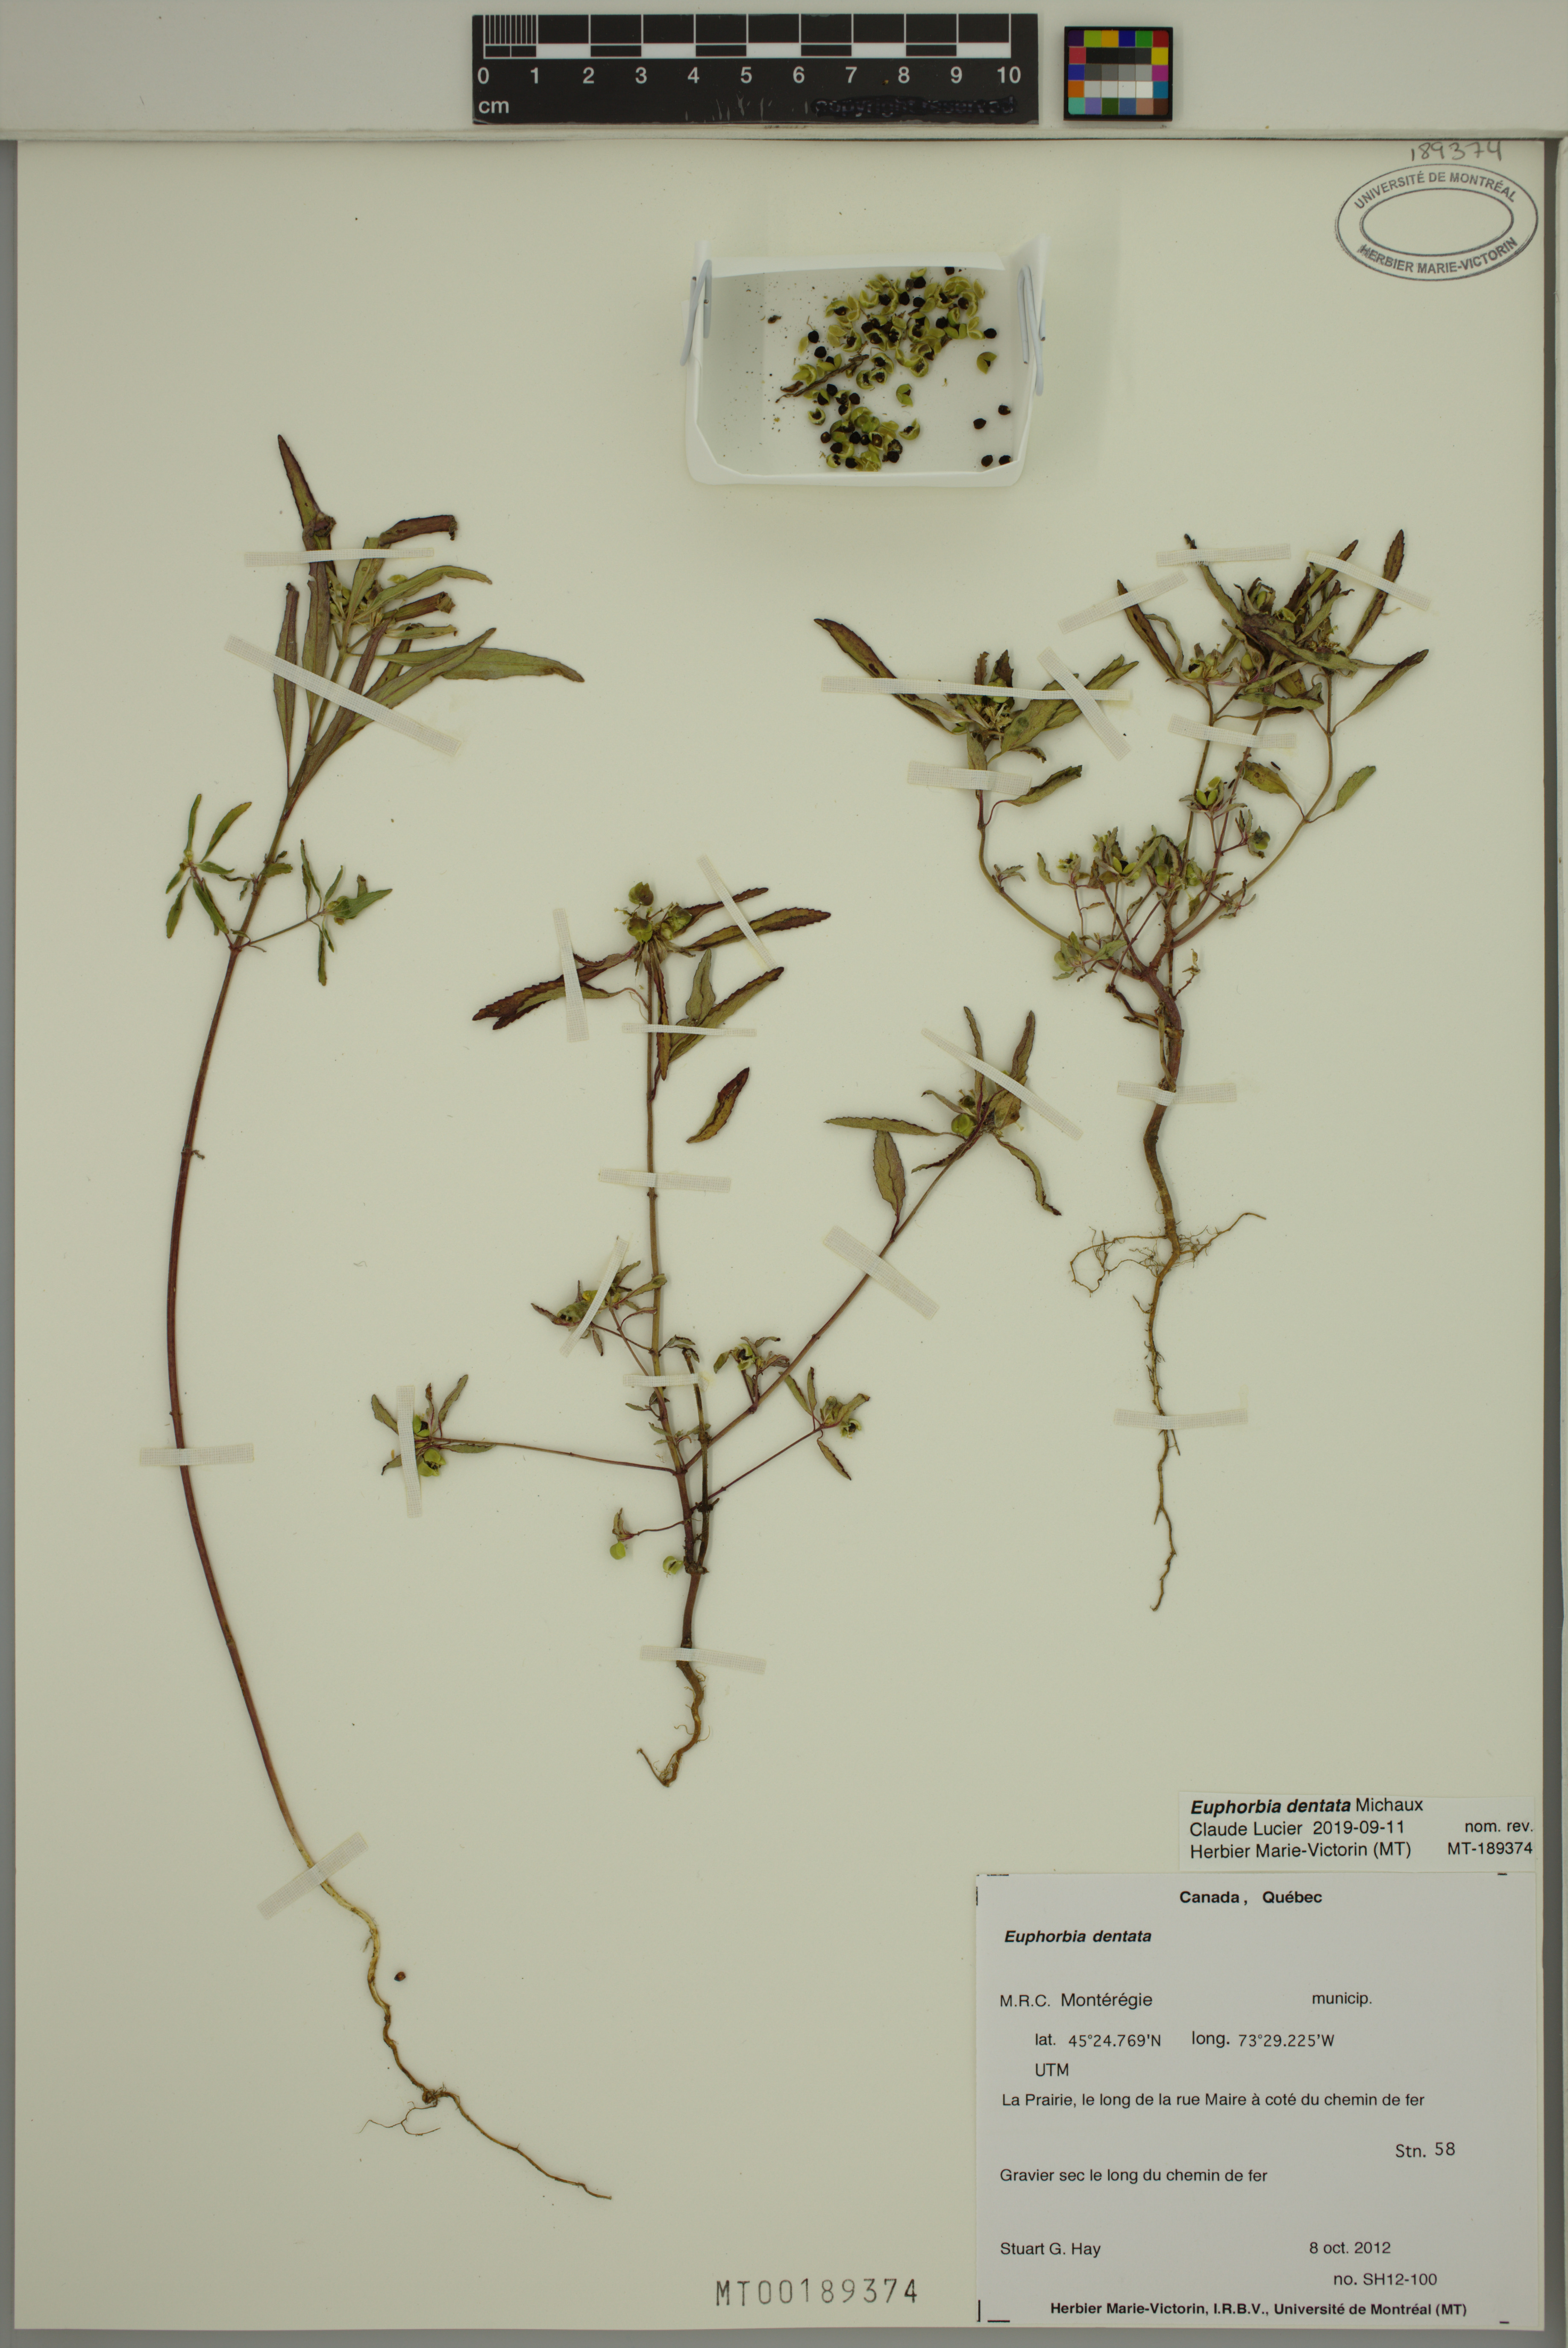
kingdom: Plantae
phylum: Tracheophyta
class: Magnoliopsida
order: Malpighiales
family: Euphorbiaceae
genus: Euphorbia
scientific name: Euphorbia dentata
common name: Dentate spurge
